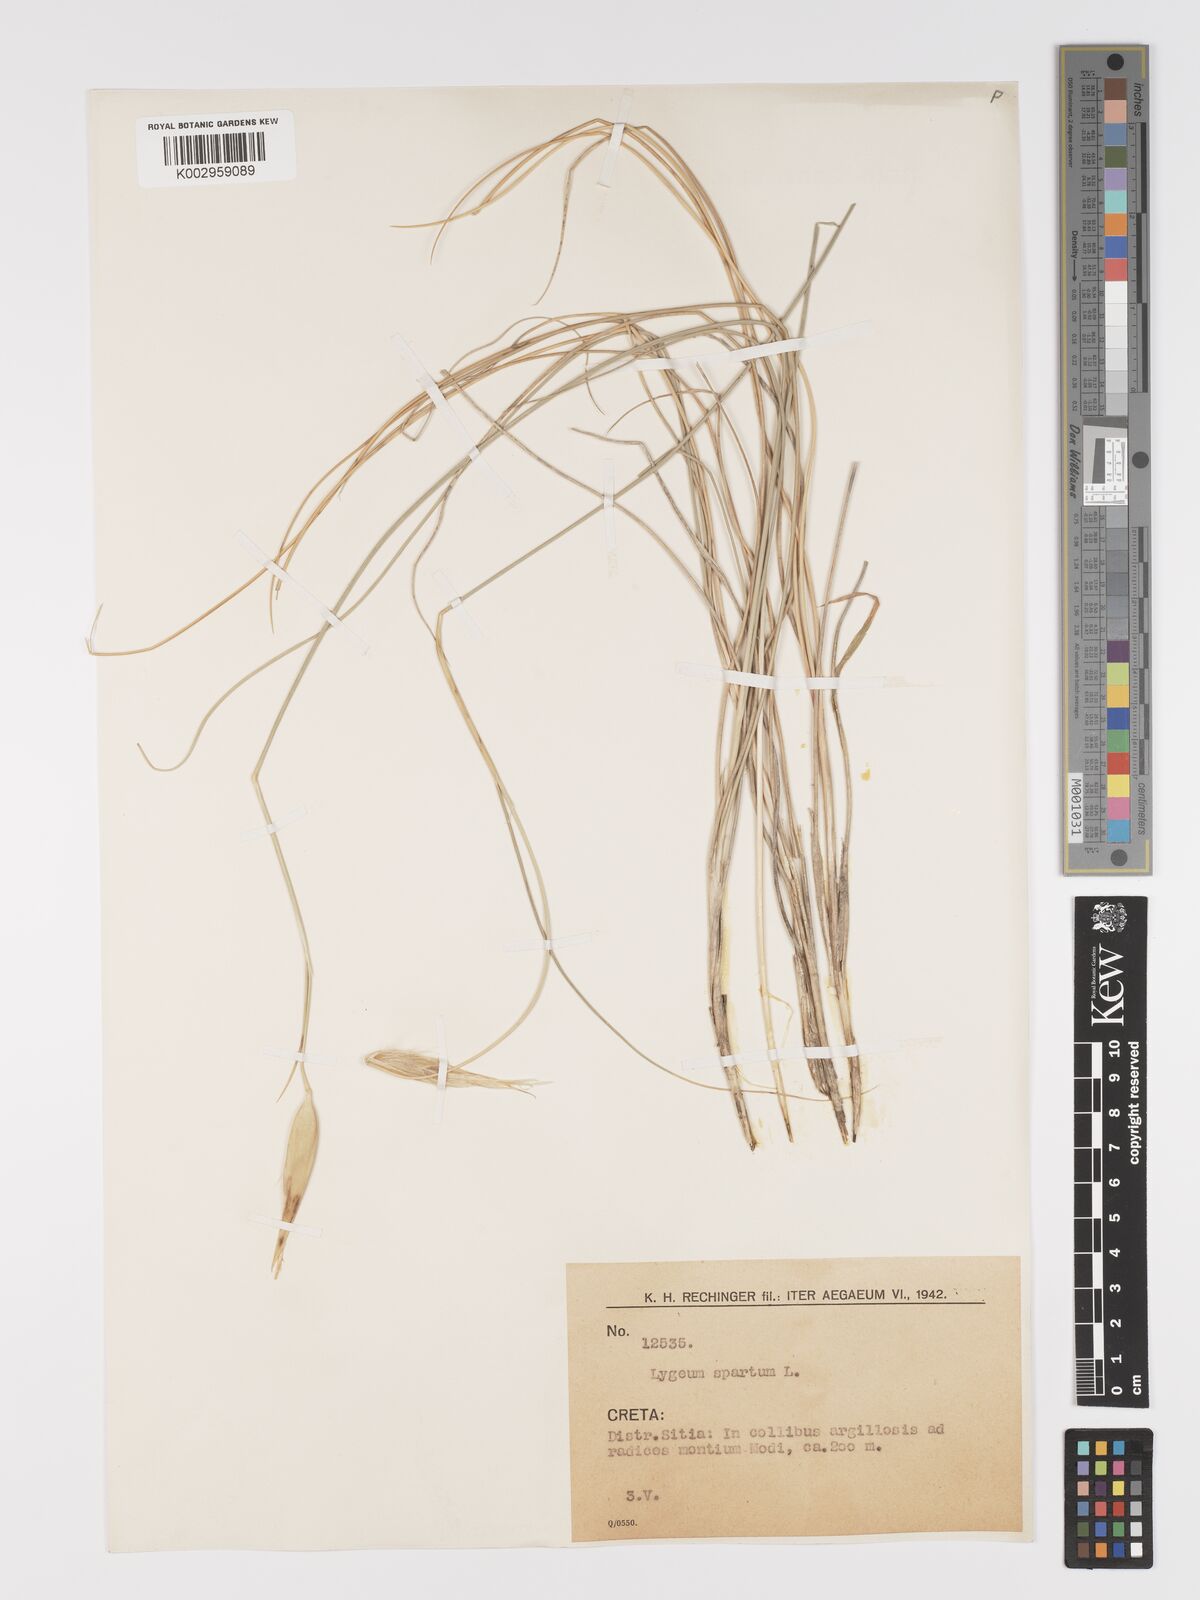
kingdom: Plantae
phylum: Tracheophyta
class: Liliopsida
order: Poales
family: Poaceae
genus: Lygeum
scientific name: Lygeum spartum
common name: Albardine
